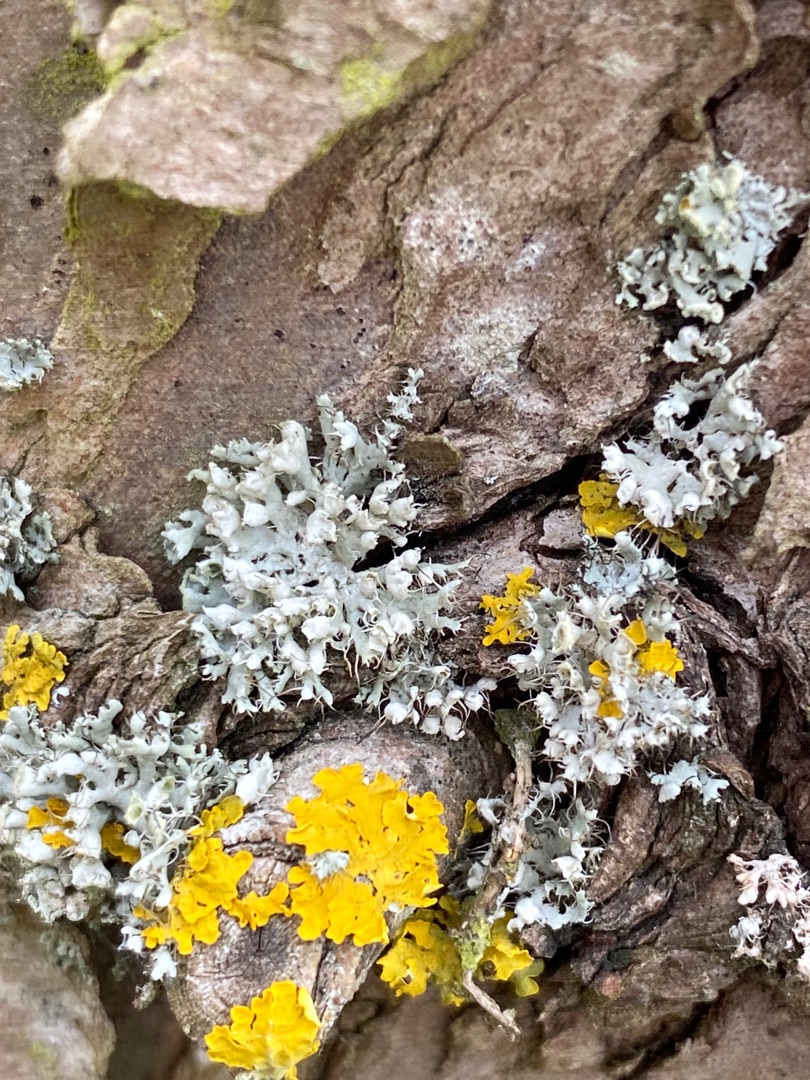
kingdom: Fungi
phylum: Ascomycota
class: Lecanoromycetes
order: Caliciales
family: Physciaceae
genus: Physcia
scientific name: Physcia adscendens
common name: Hætte-rosetlav
